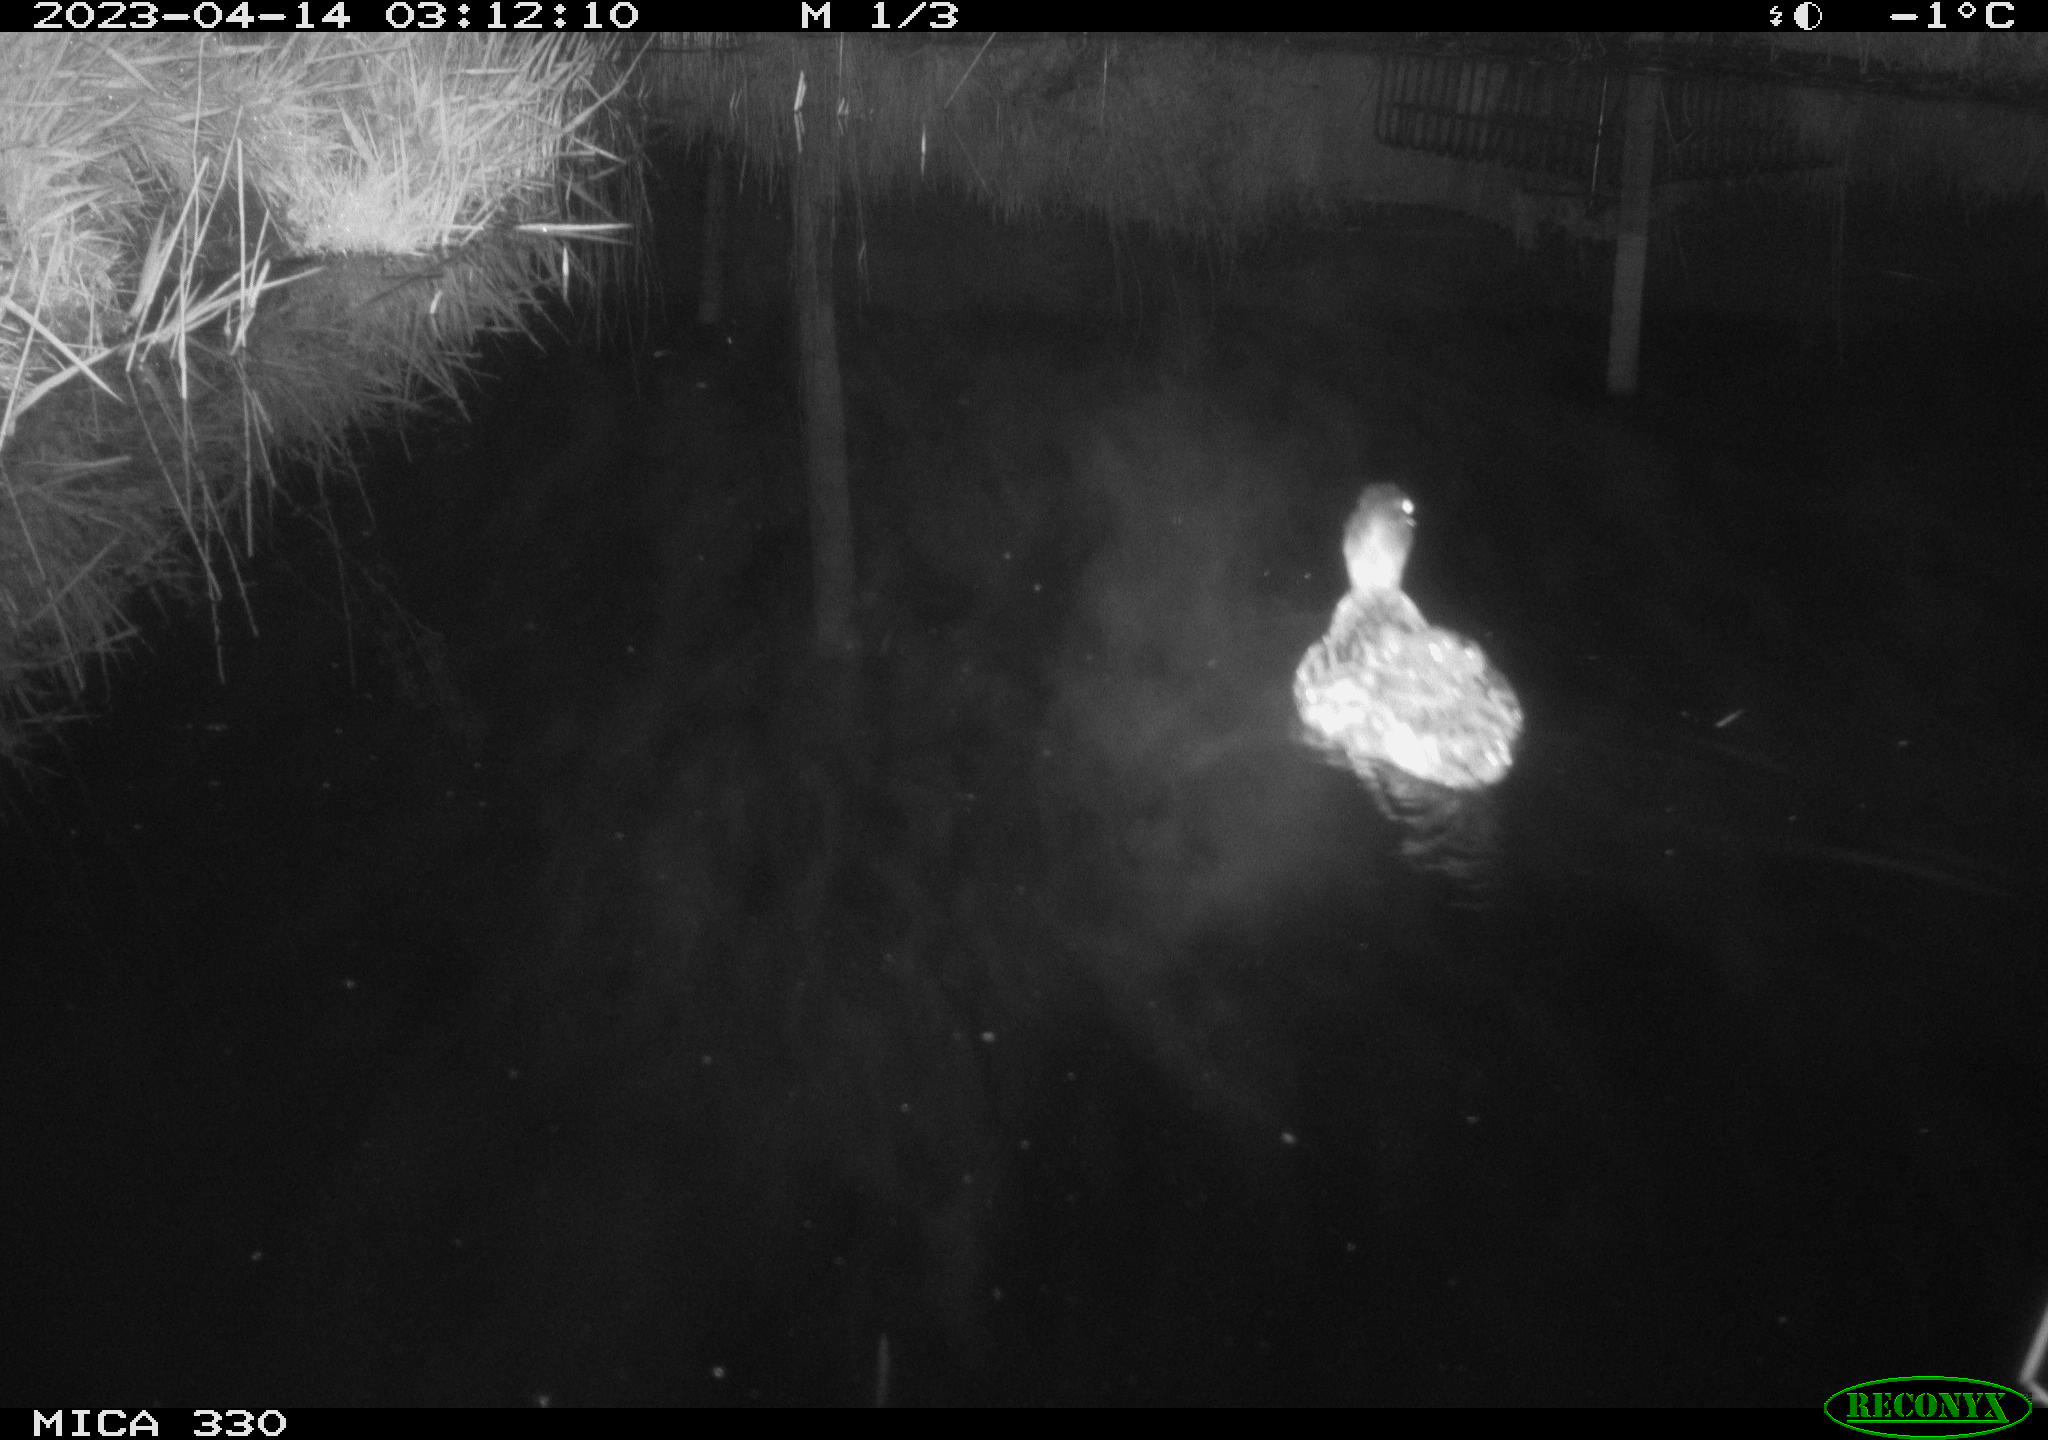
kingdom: Animalia
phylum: Chordata
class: Aves
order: Anseriformes
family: Anatidae
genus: Anas
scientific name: Anas
